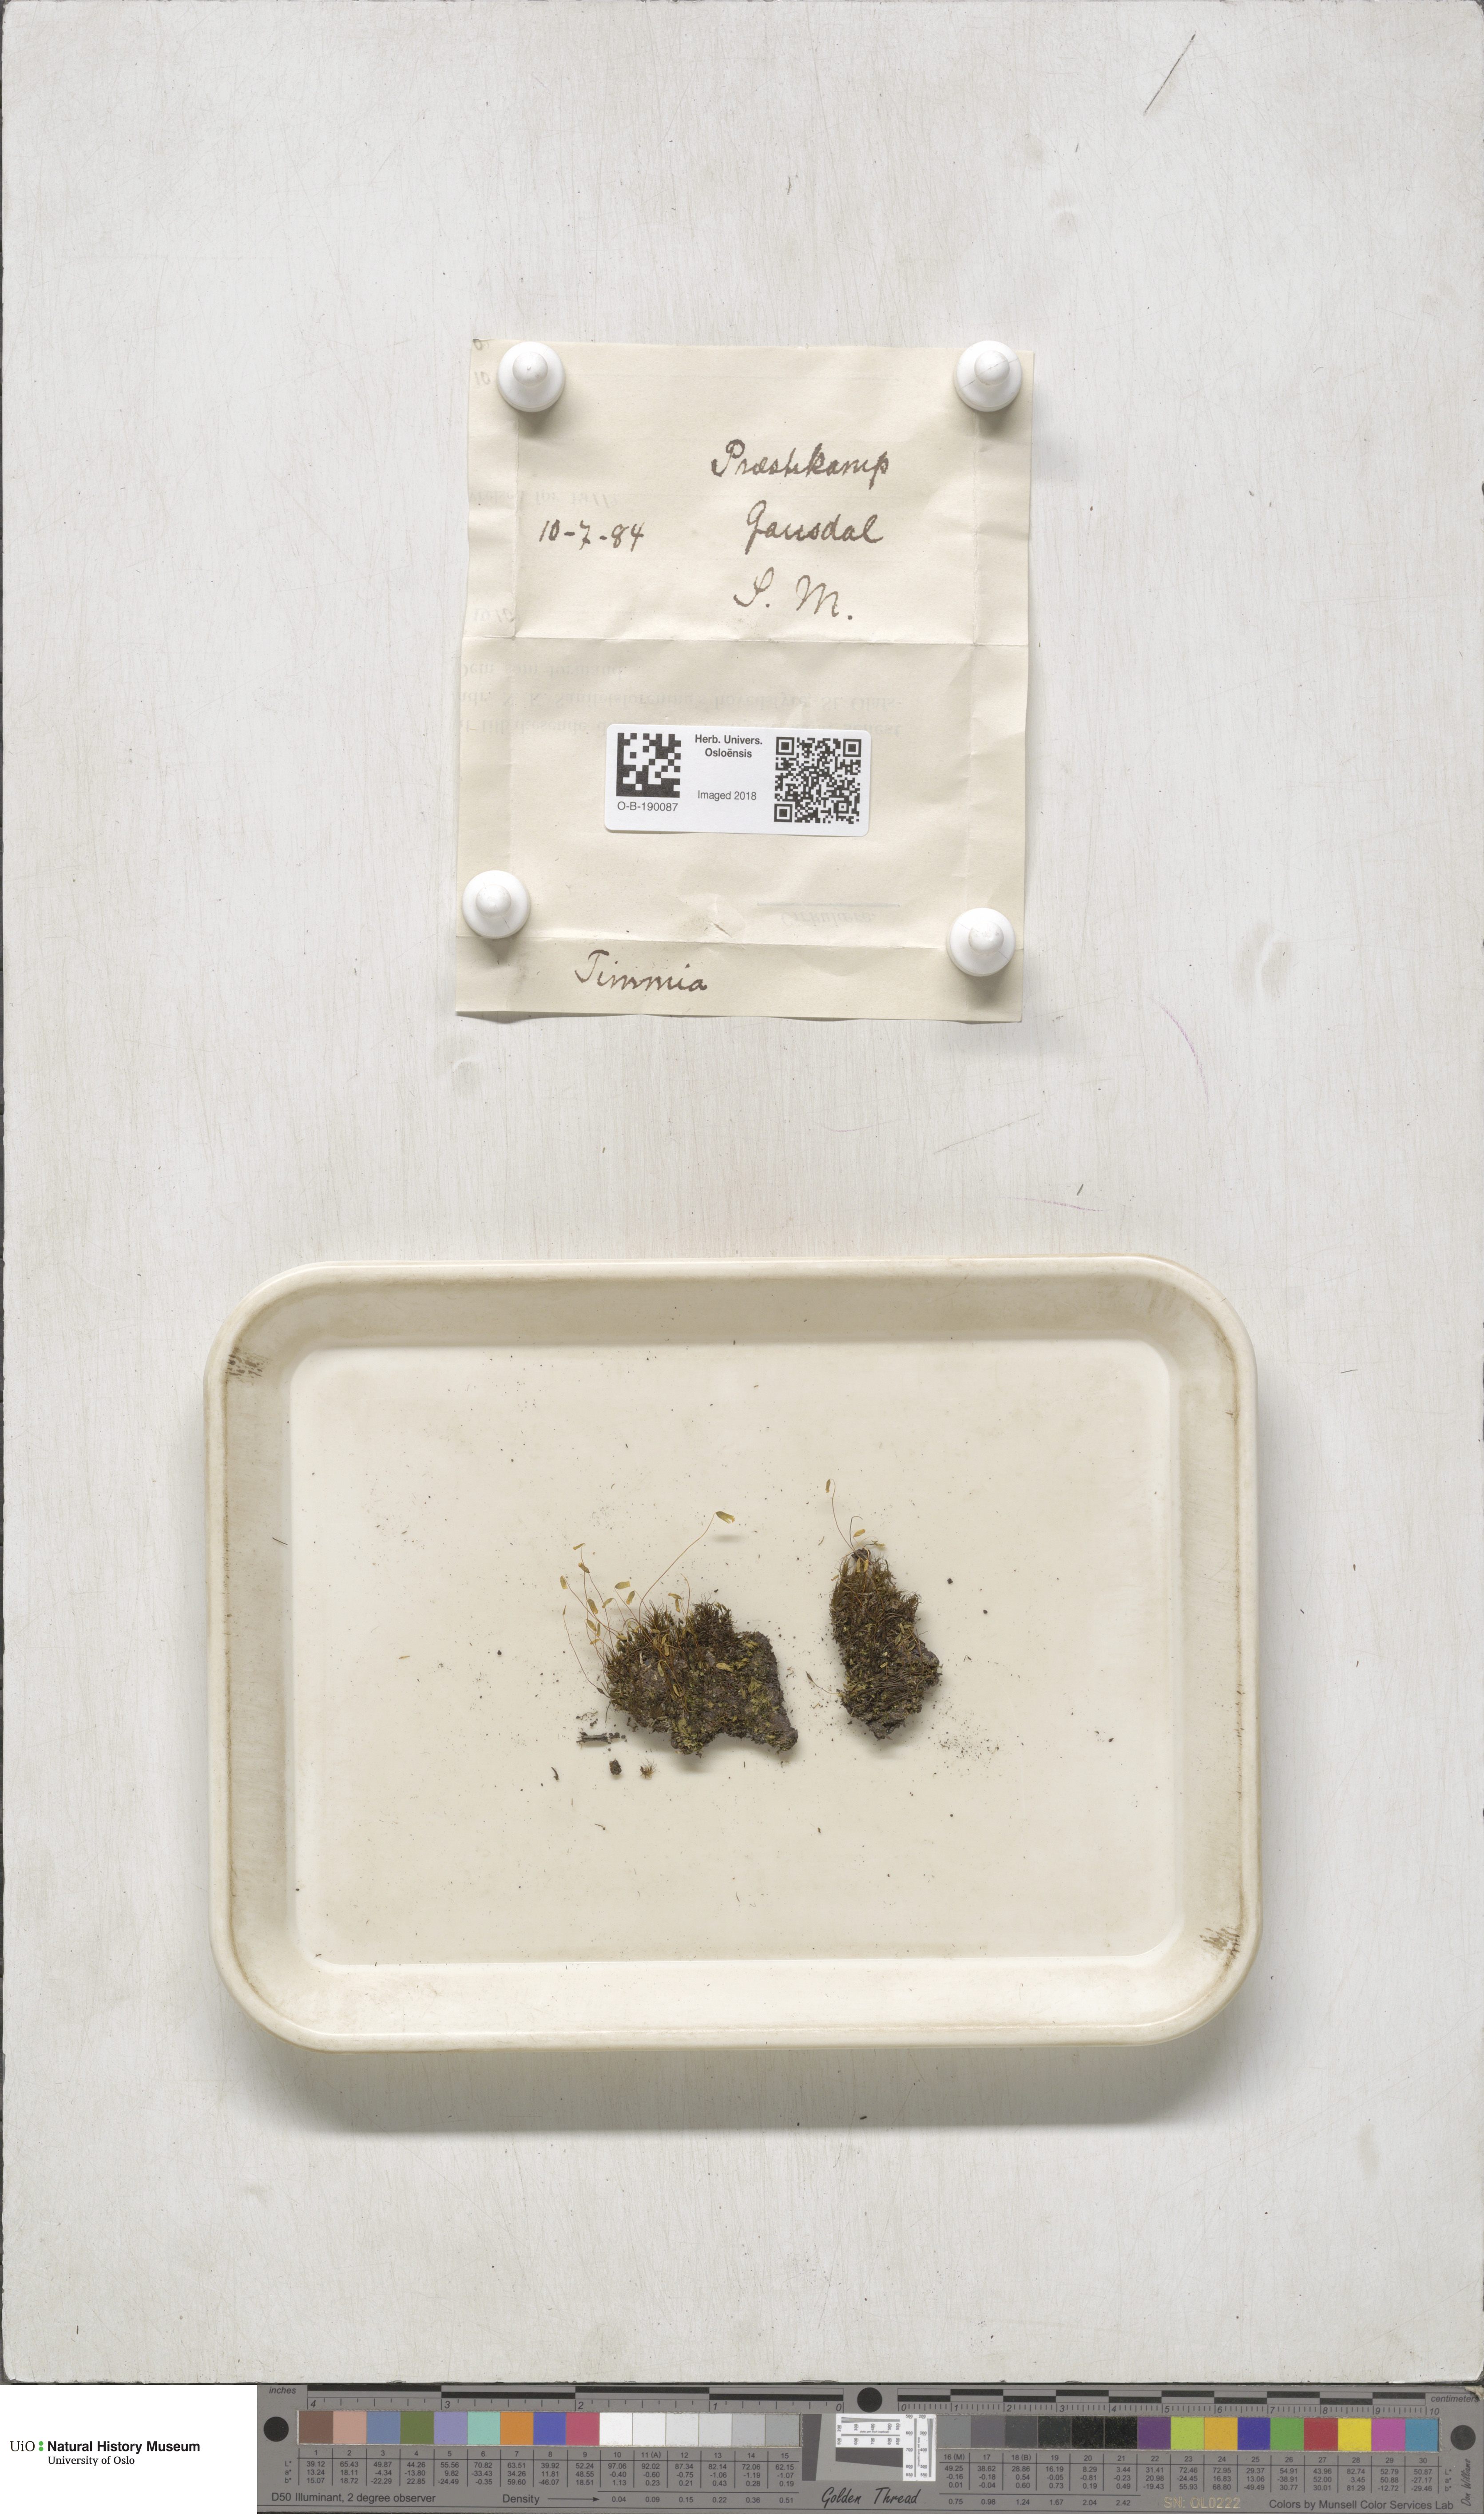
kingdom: Plantae
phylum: Bryophyta
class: Bryopsida
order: Timmiales
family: Timmiaceae
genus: Timmia
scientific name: Timmia austriaca
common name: Austrian timmia
